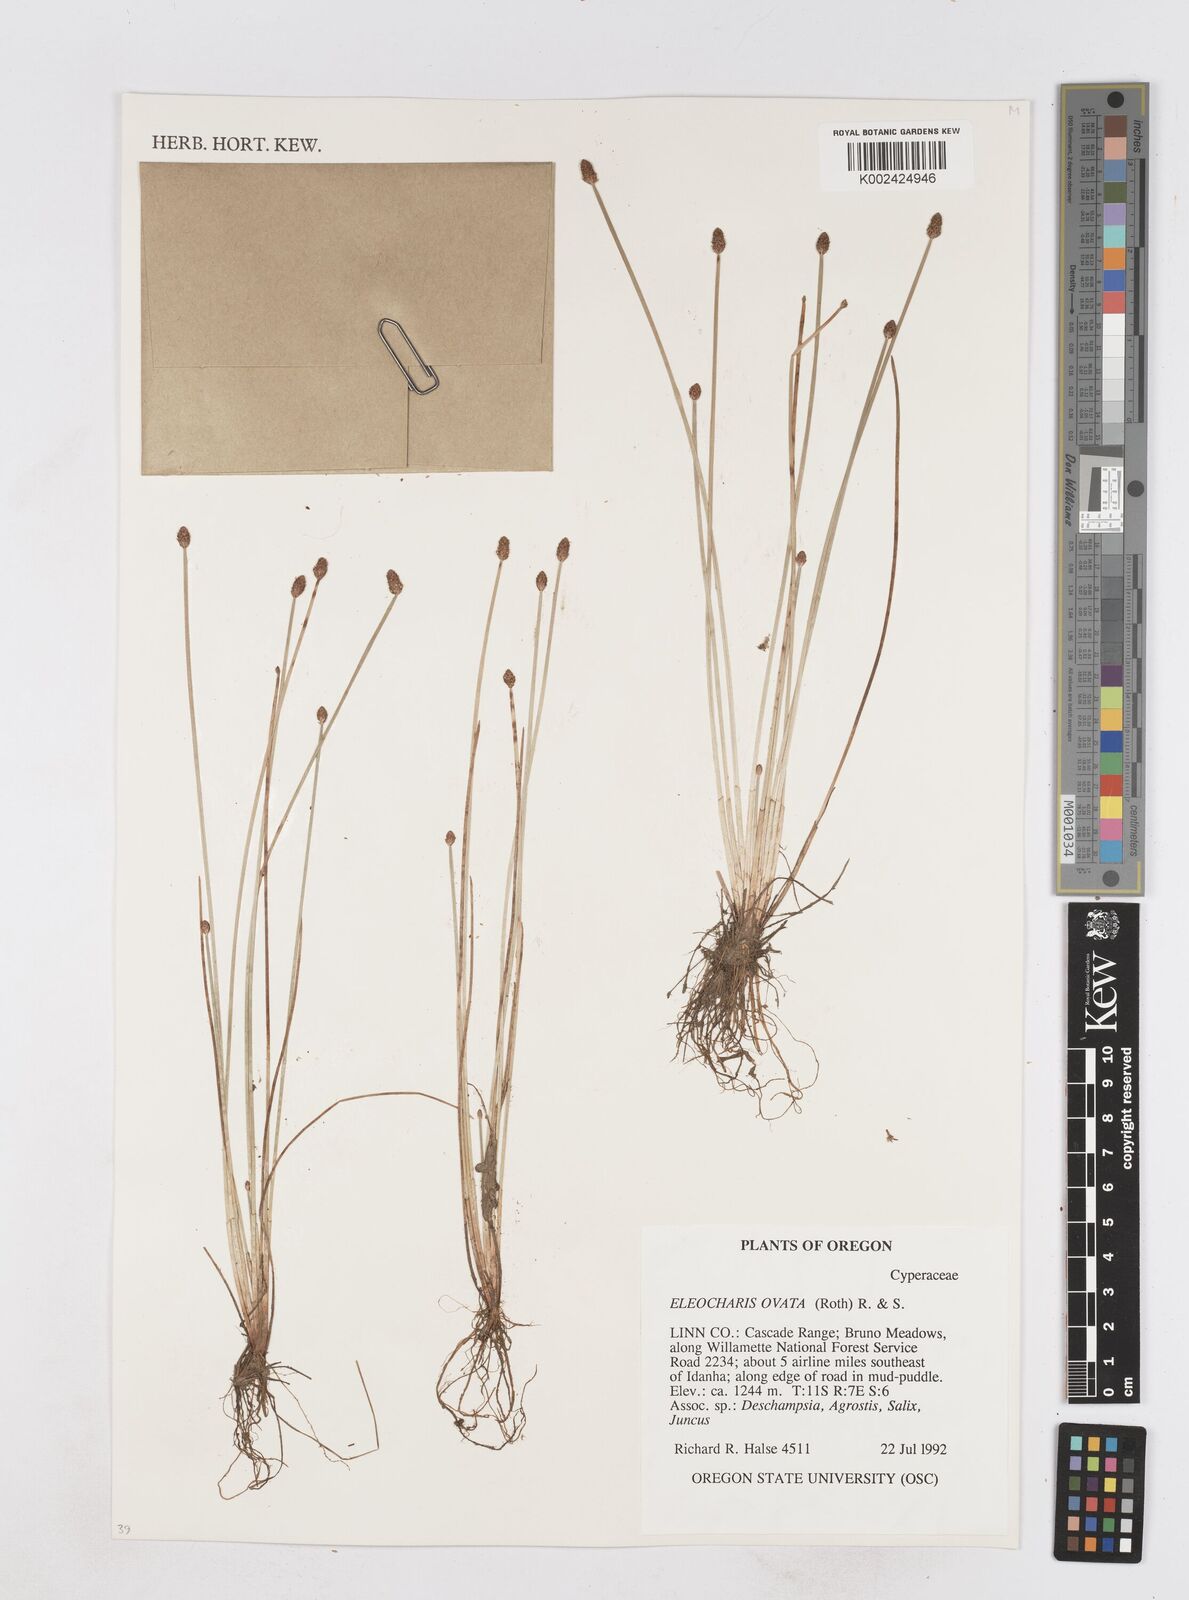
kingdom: Plantae
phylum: Tracheophyta
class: Liliopsida
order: Poales
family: Cyperaceae
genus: Eleocharis
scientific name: Eleocharis ovata
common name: Oval spike-rush
